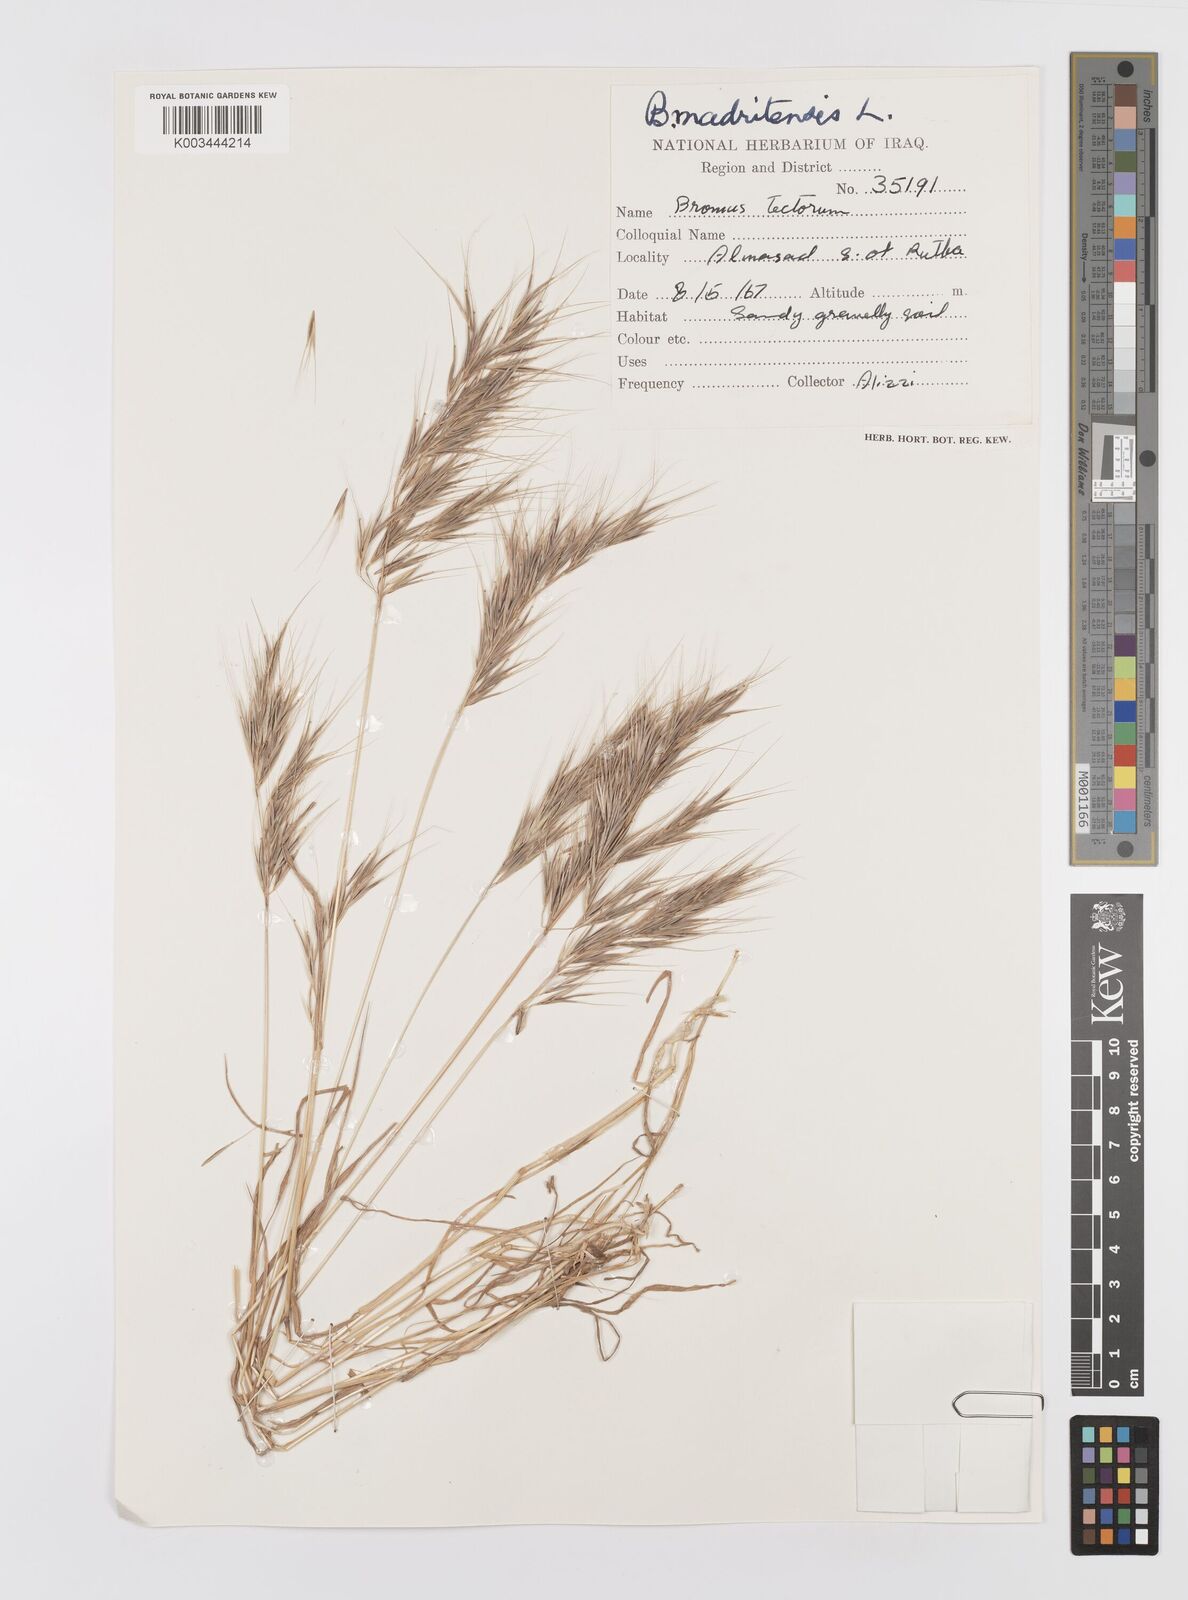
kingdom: Plantae
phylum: Tracheophyta
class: Liliopsida
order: Poales
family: Poaceae
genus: Bromus
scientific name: Bromus madritensis
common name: Compact brome
